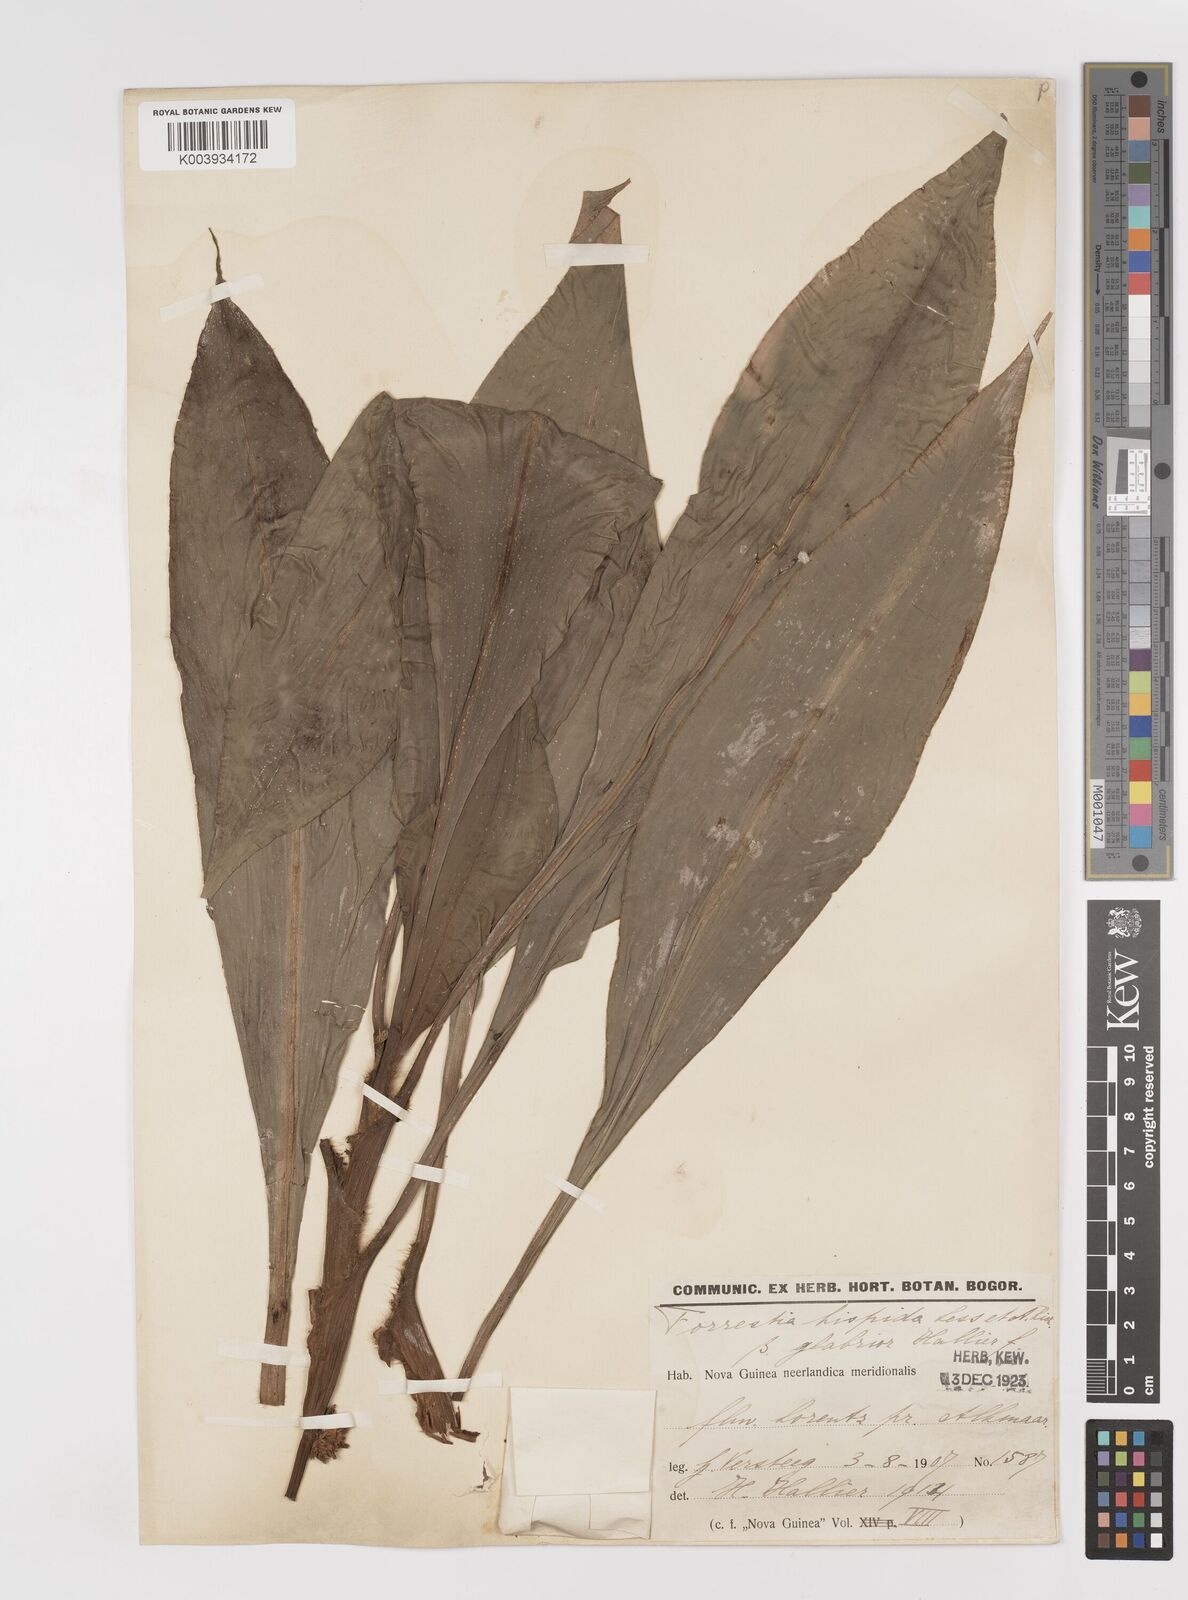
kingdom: Plantae
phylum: Tracheophyta
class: Liliopsida
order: Commelinales
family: Commelinaceae
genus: Amischotolype
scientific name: Amischotolype hispida
